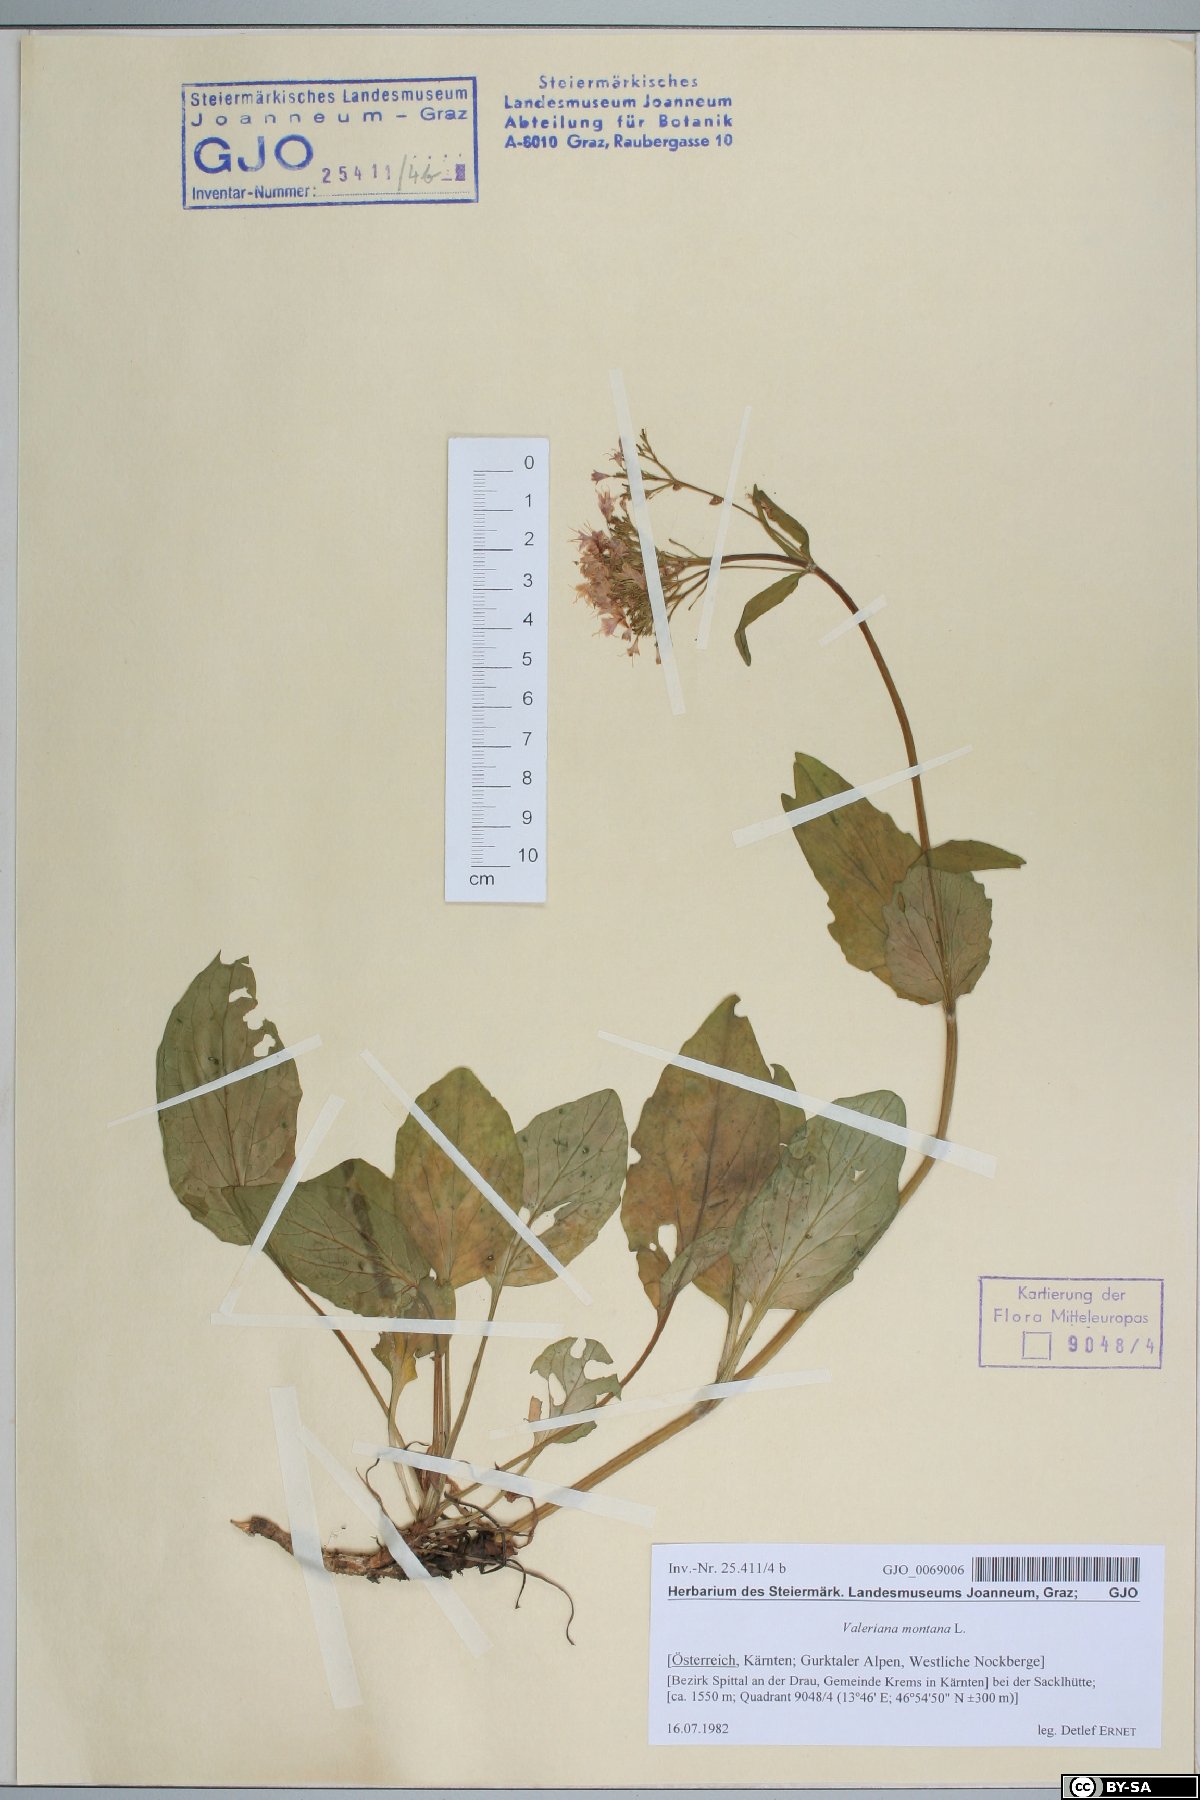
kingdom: Plantae
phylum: Tracheophyta
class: Magnoliopsida
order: Dipsacales
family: Caprifoliaceae
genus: Valeriana
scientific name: Valeriana montana
